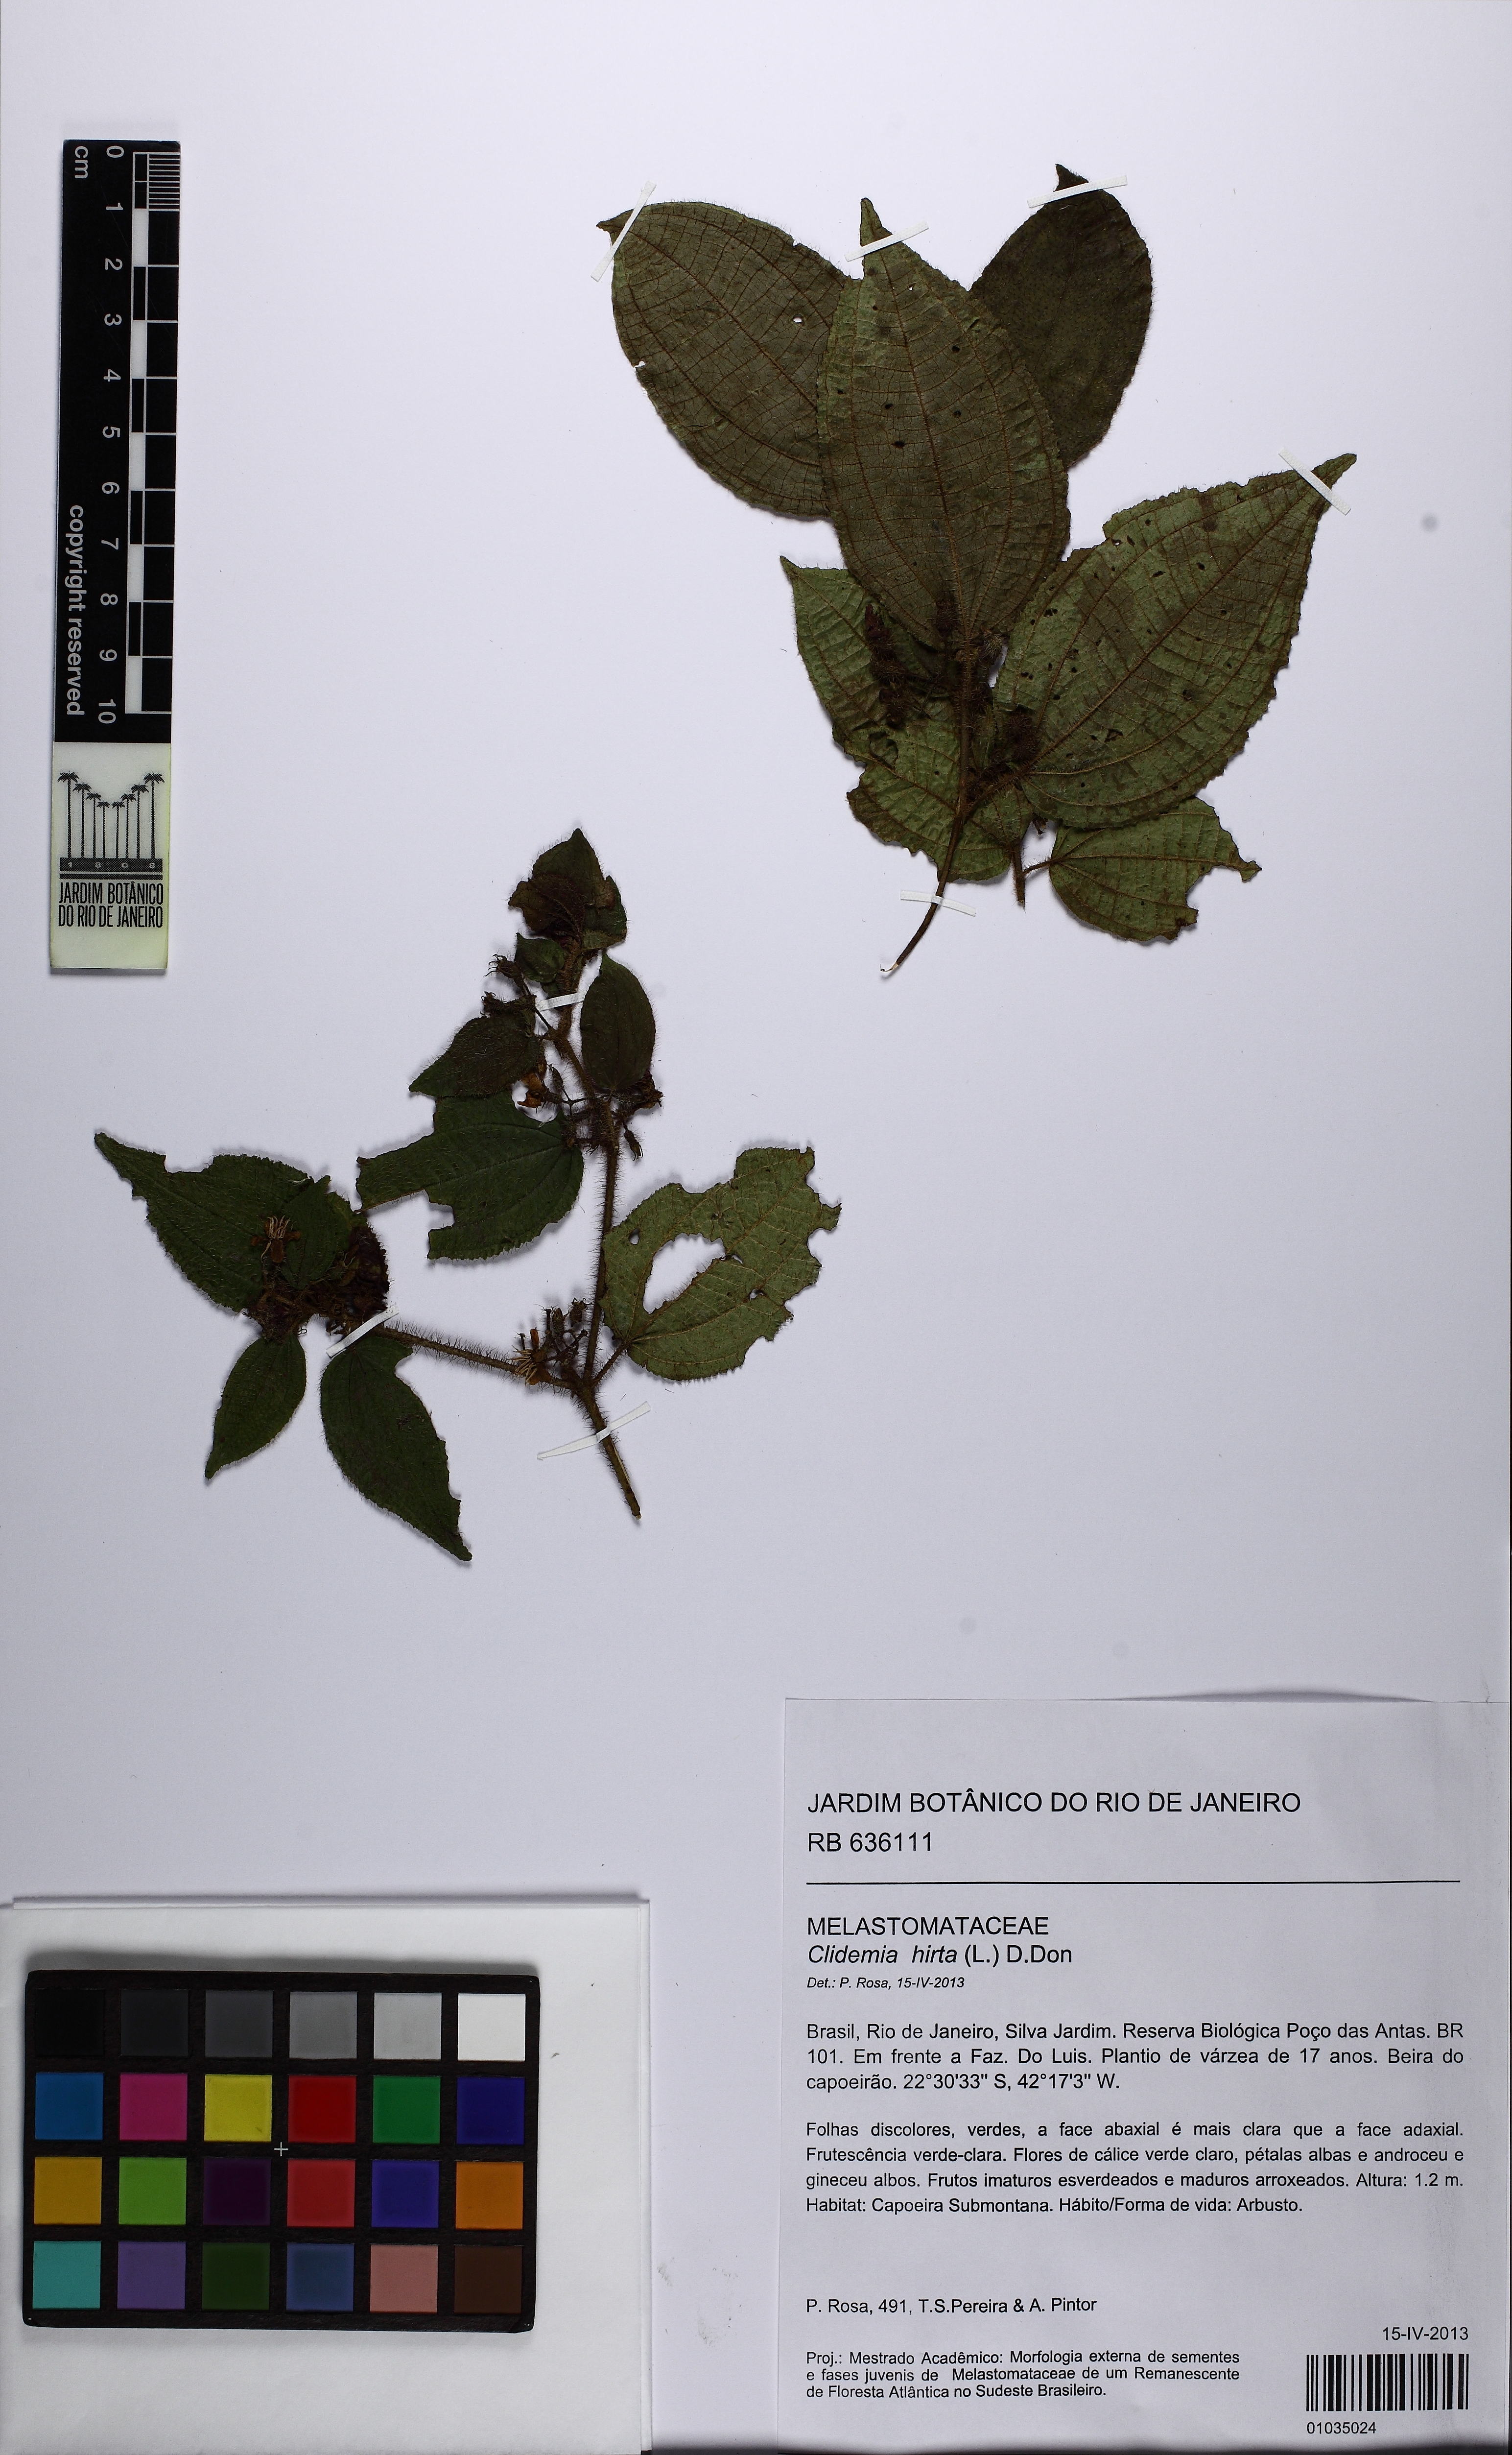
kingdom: Plantae
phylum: Tracheophyta
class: Magnoliopsida
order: Myrtales
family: Melastomataceae
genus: Miconia
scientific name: Miconia crenata
